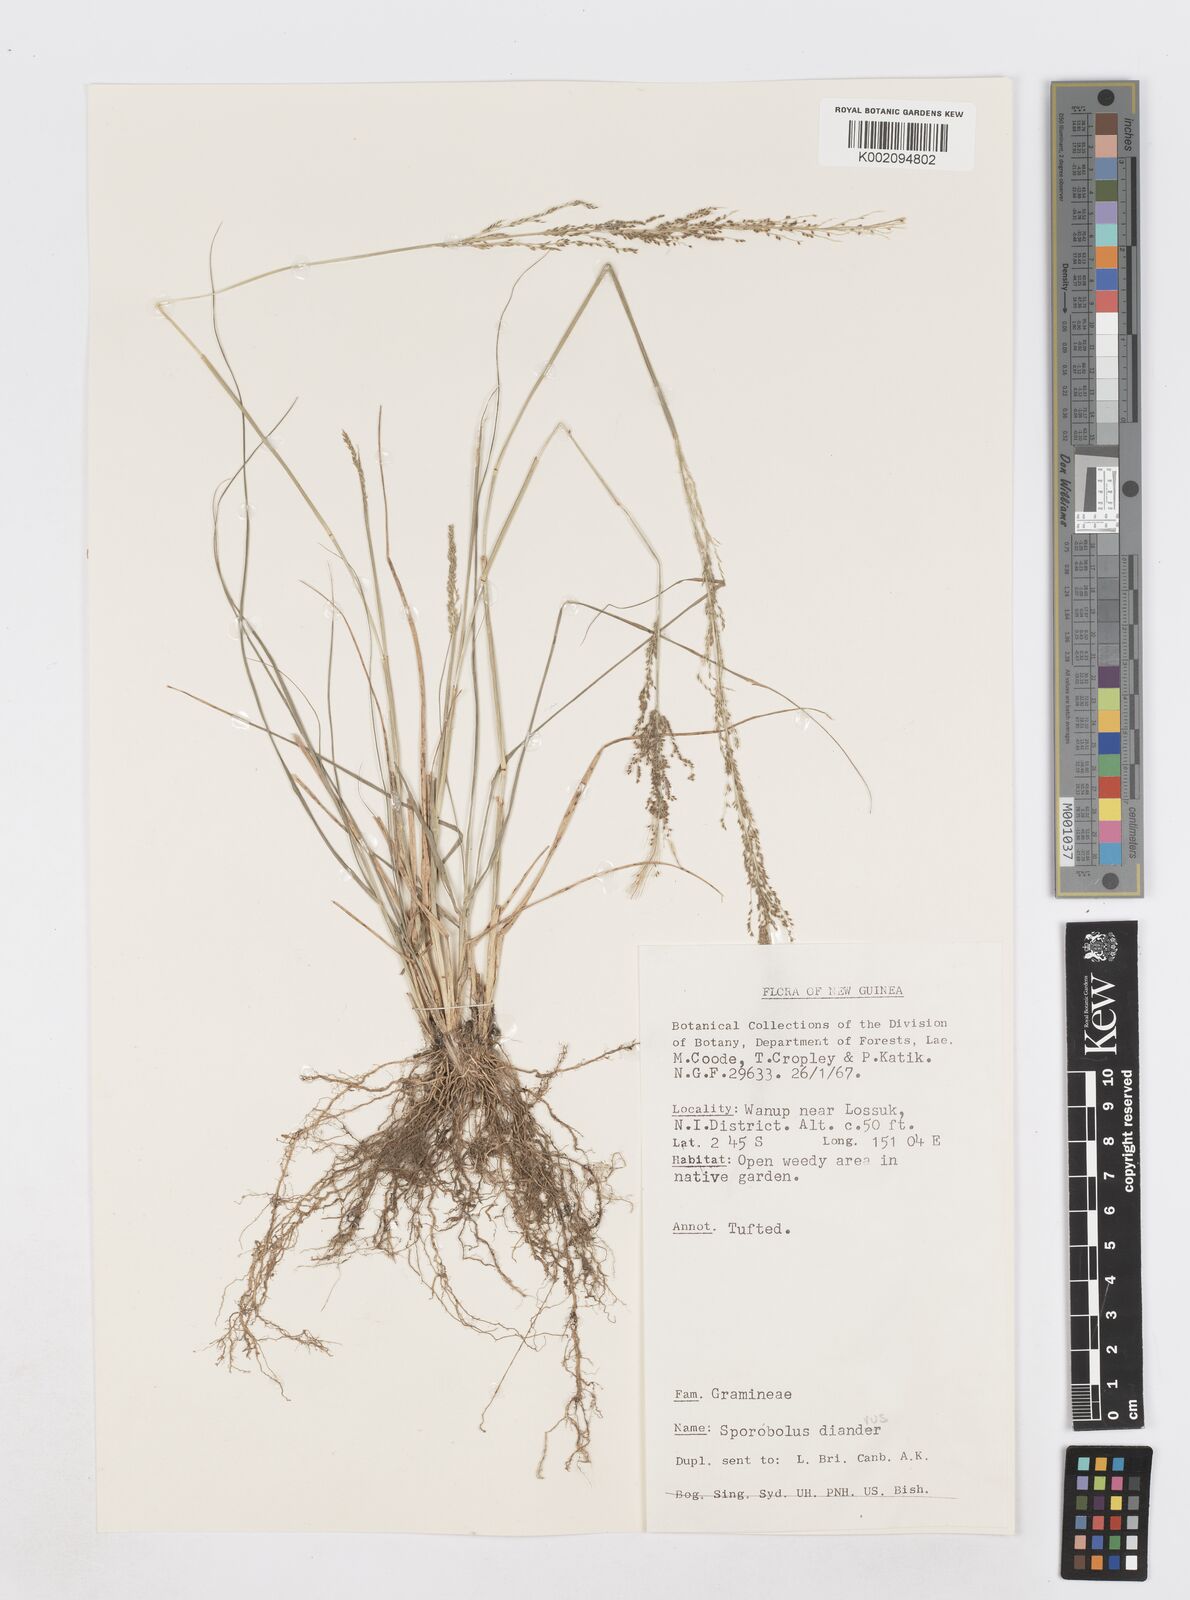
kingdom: Plantae
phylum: Tracheophyta
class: Liliopsida
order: Poales
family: Poaceae
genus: Sporobolus
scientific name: Sporobolus diandrus
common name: Tussock dropseed
